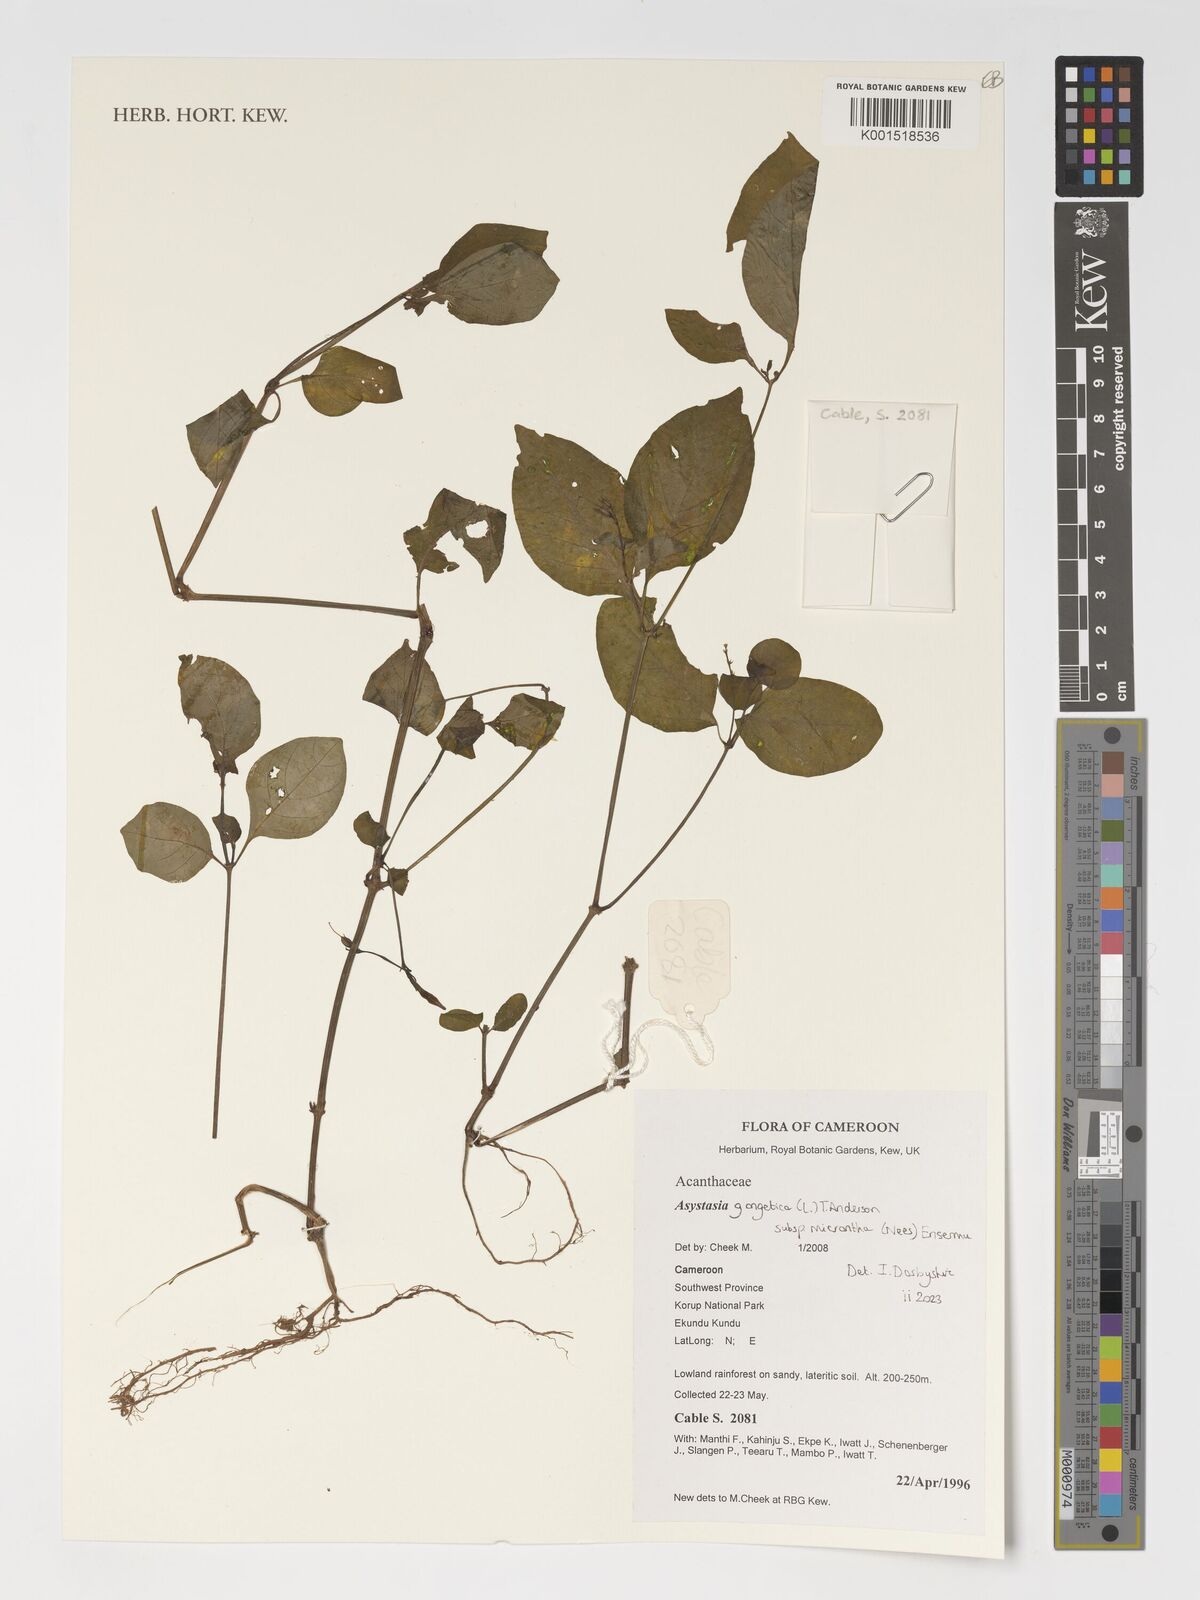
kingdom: Plantae
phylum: Tracheophyta
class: Magnoliopsida
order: Lamiales
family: Acanthaceae
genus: Asystasia
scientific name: Asystasia intrusa
